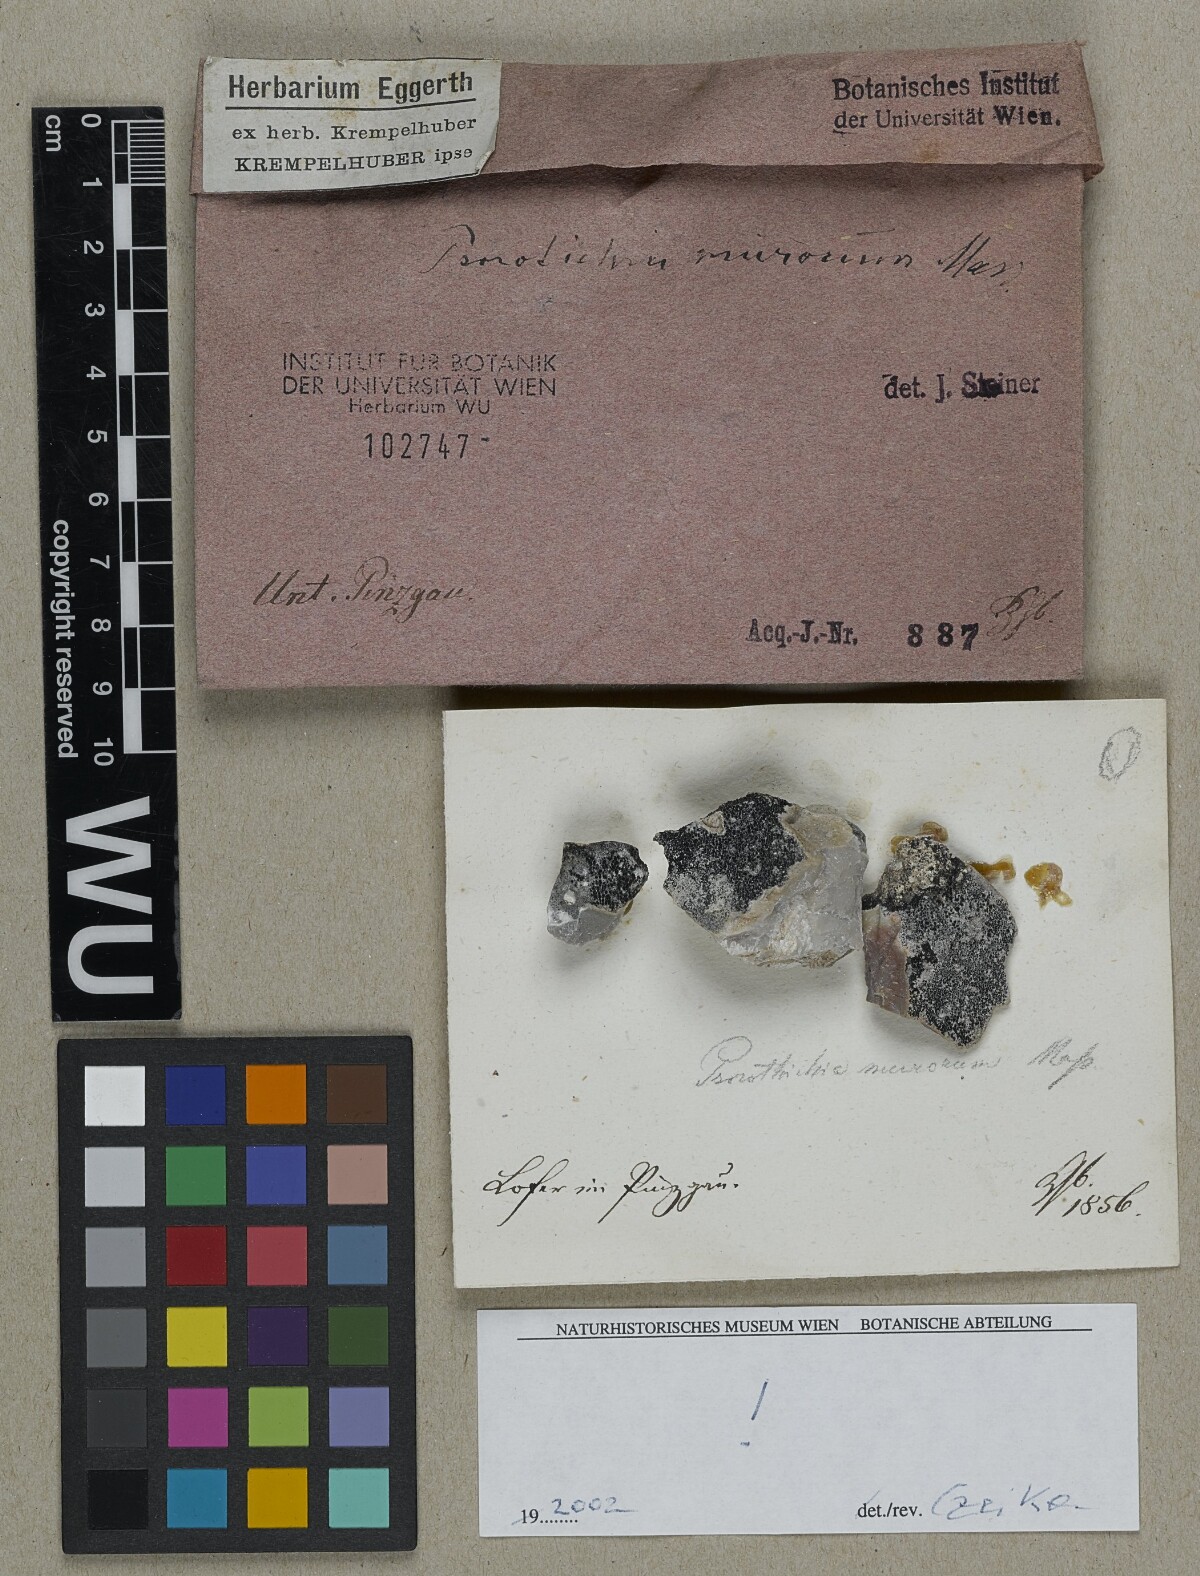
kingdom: Fungi
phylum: Ascomycota
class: Lichinomycetes
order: Lichinales
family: Lichinaceae
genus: Psorotichia
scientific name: Psorotichia murorum
